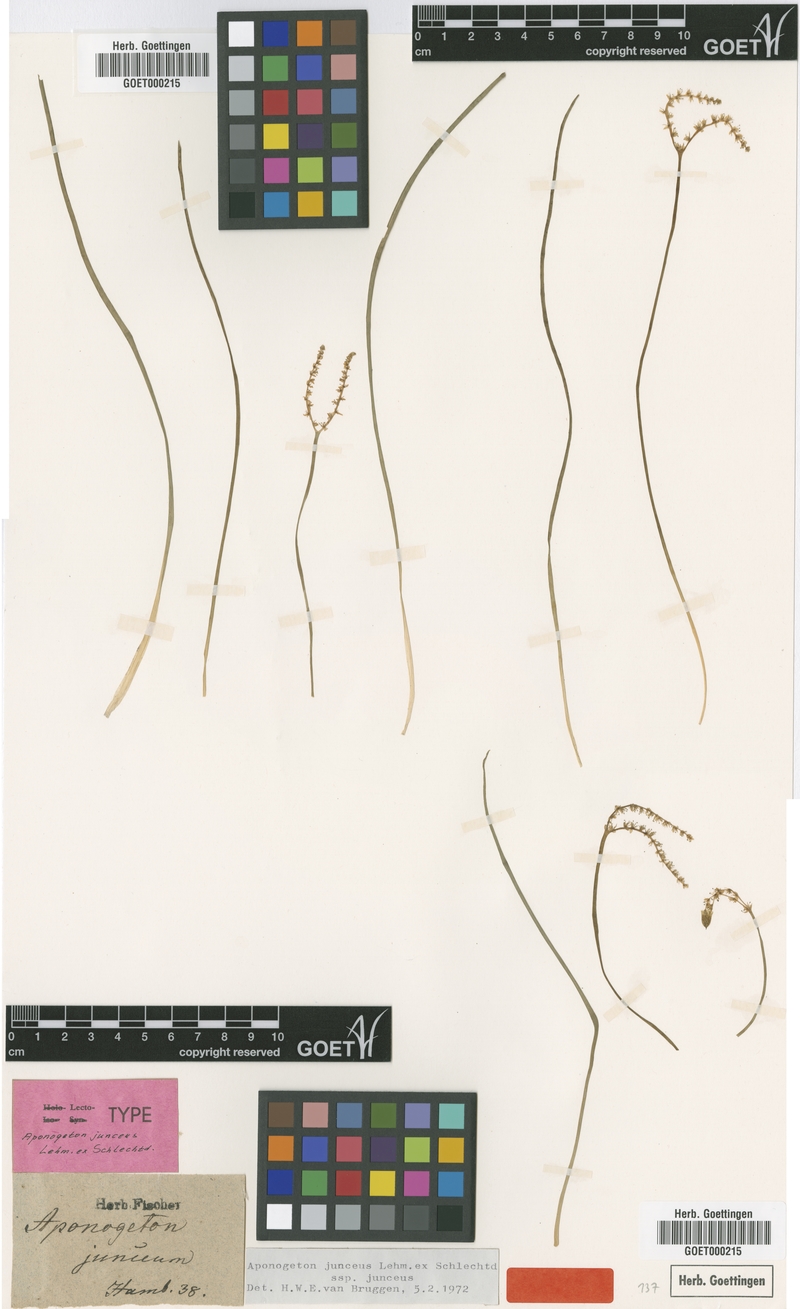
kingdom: Plantae
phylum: Tracheophyta
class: Liliopsida
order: Alismatales
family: Aponogetonaceae
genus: Aponogeton
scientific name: Aponogeton junceus
